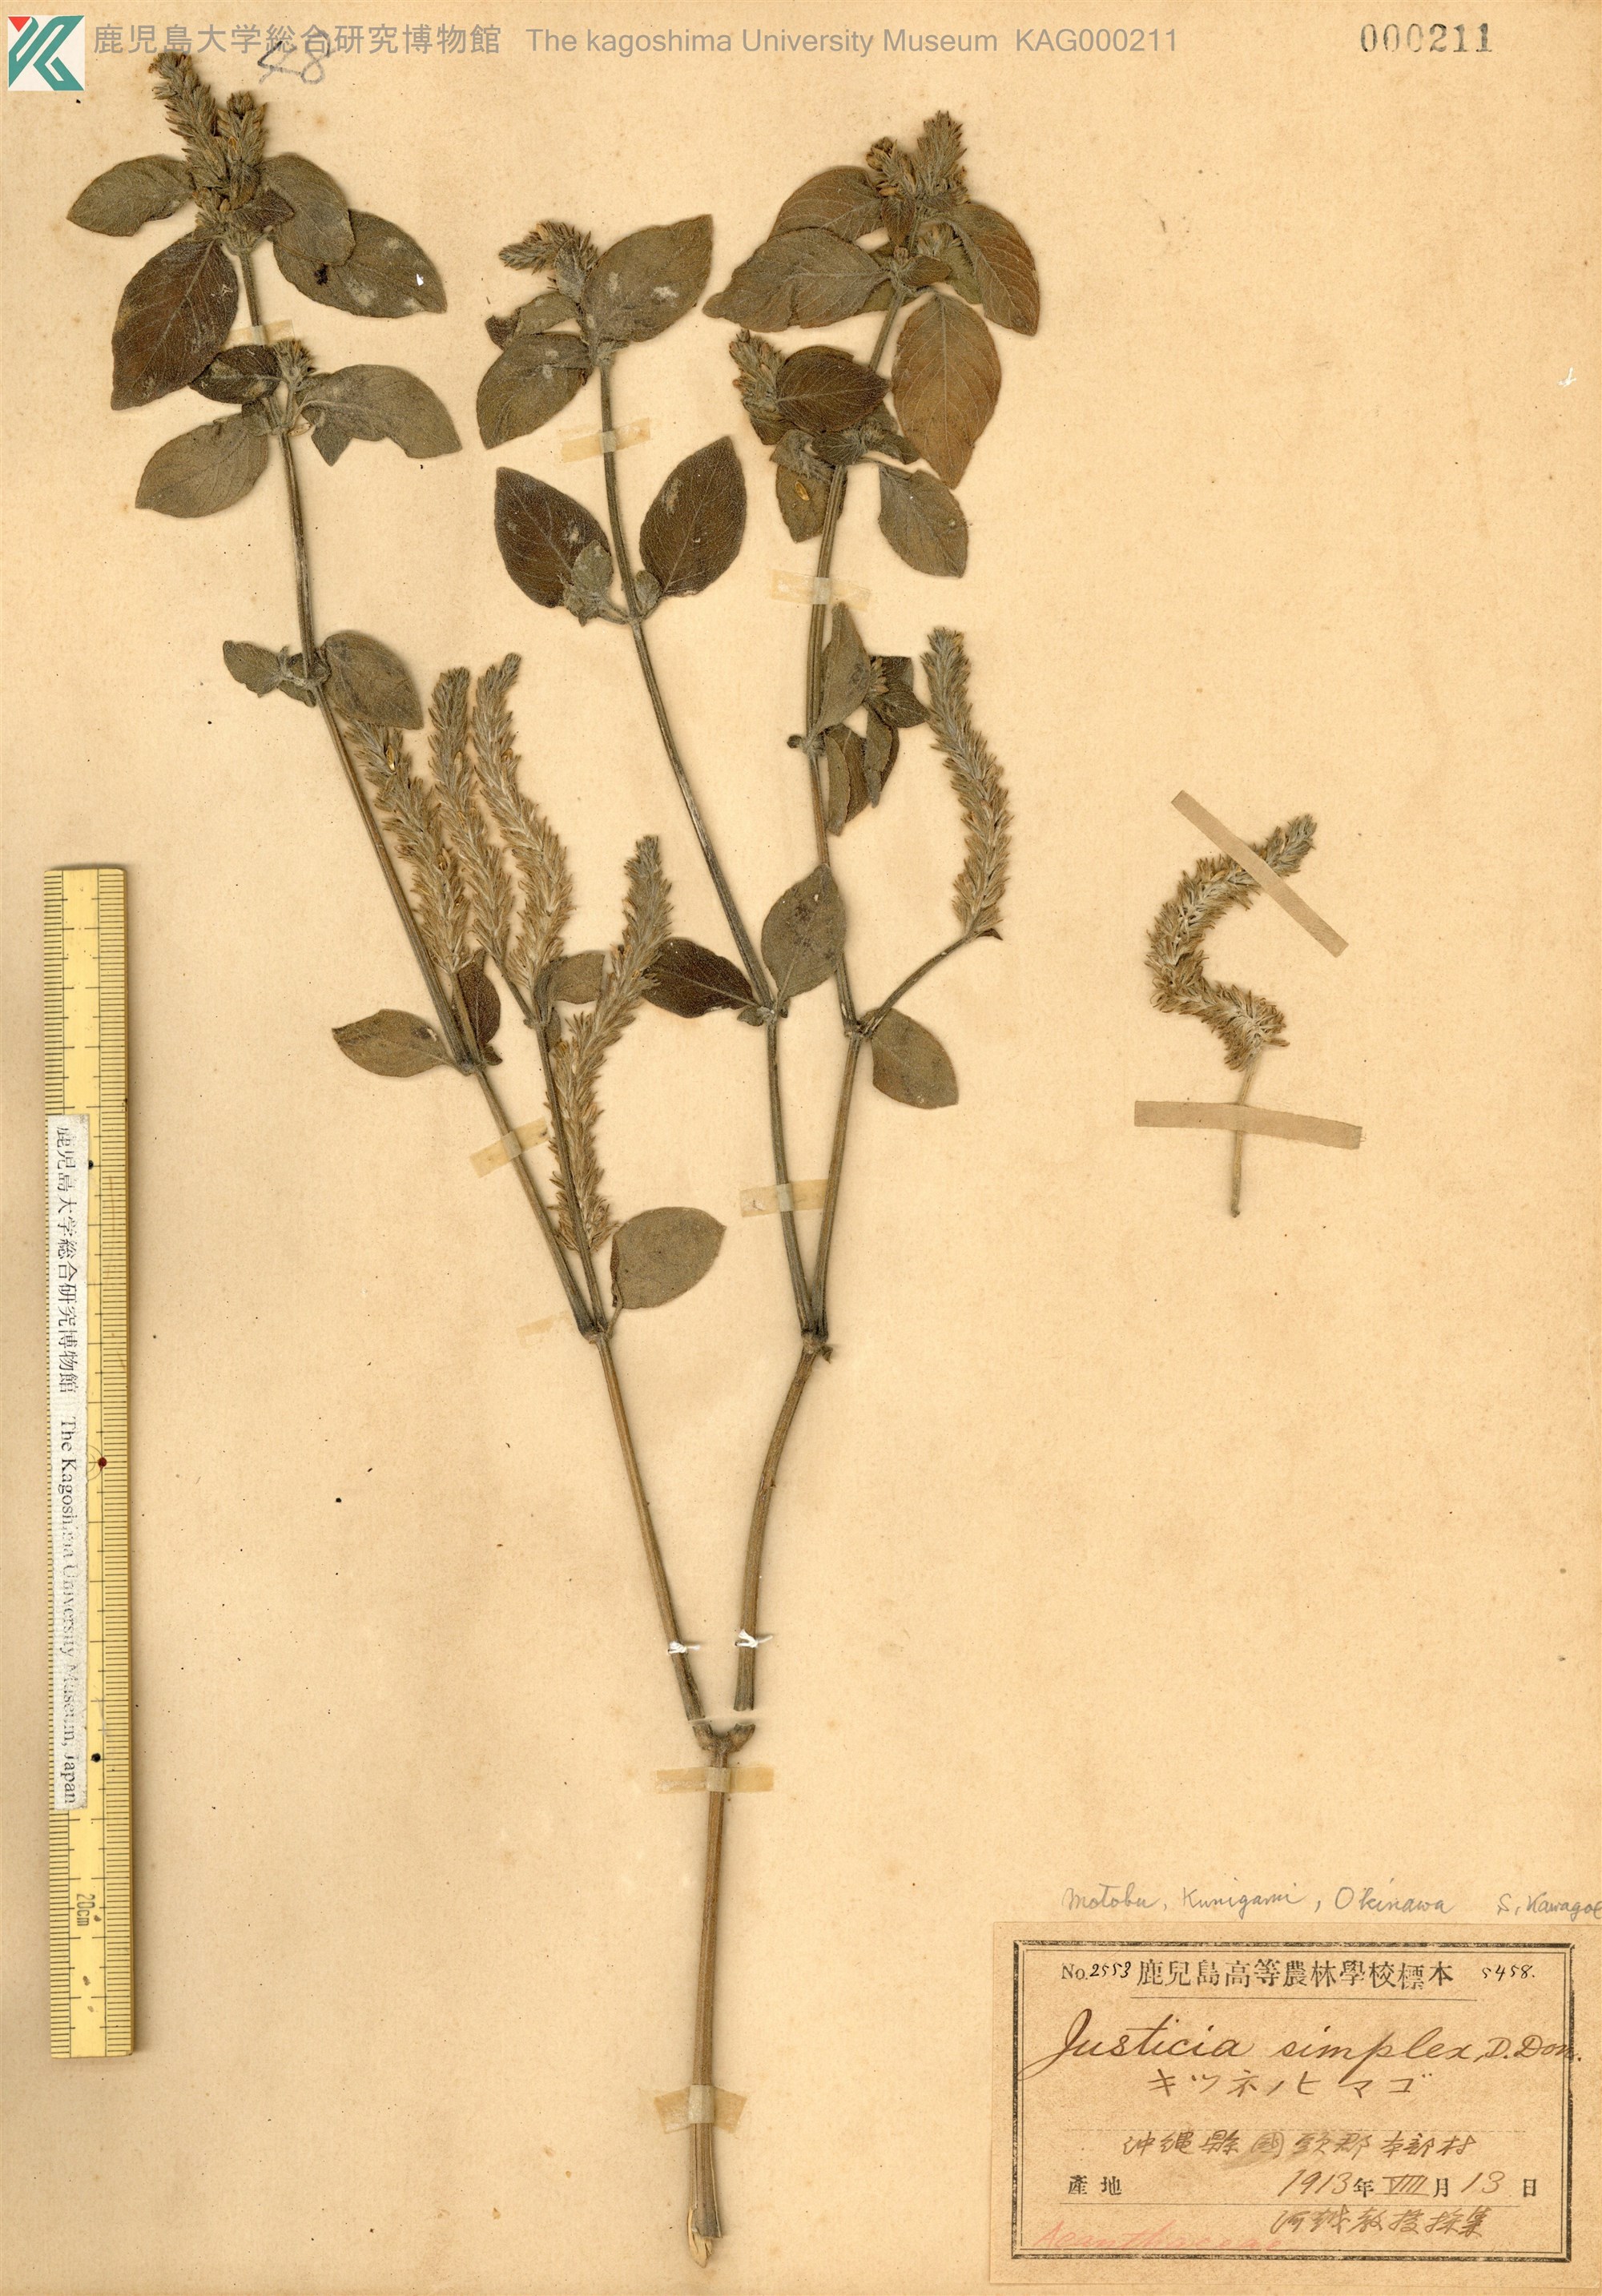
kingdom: Plantae
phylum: Tracheophyta
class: Magnoliopsida
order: Lamiales
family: Acanthaceae
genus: Rostellularia
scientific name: Rostellularia mollissima
